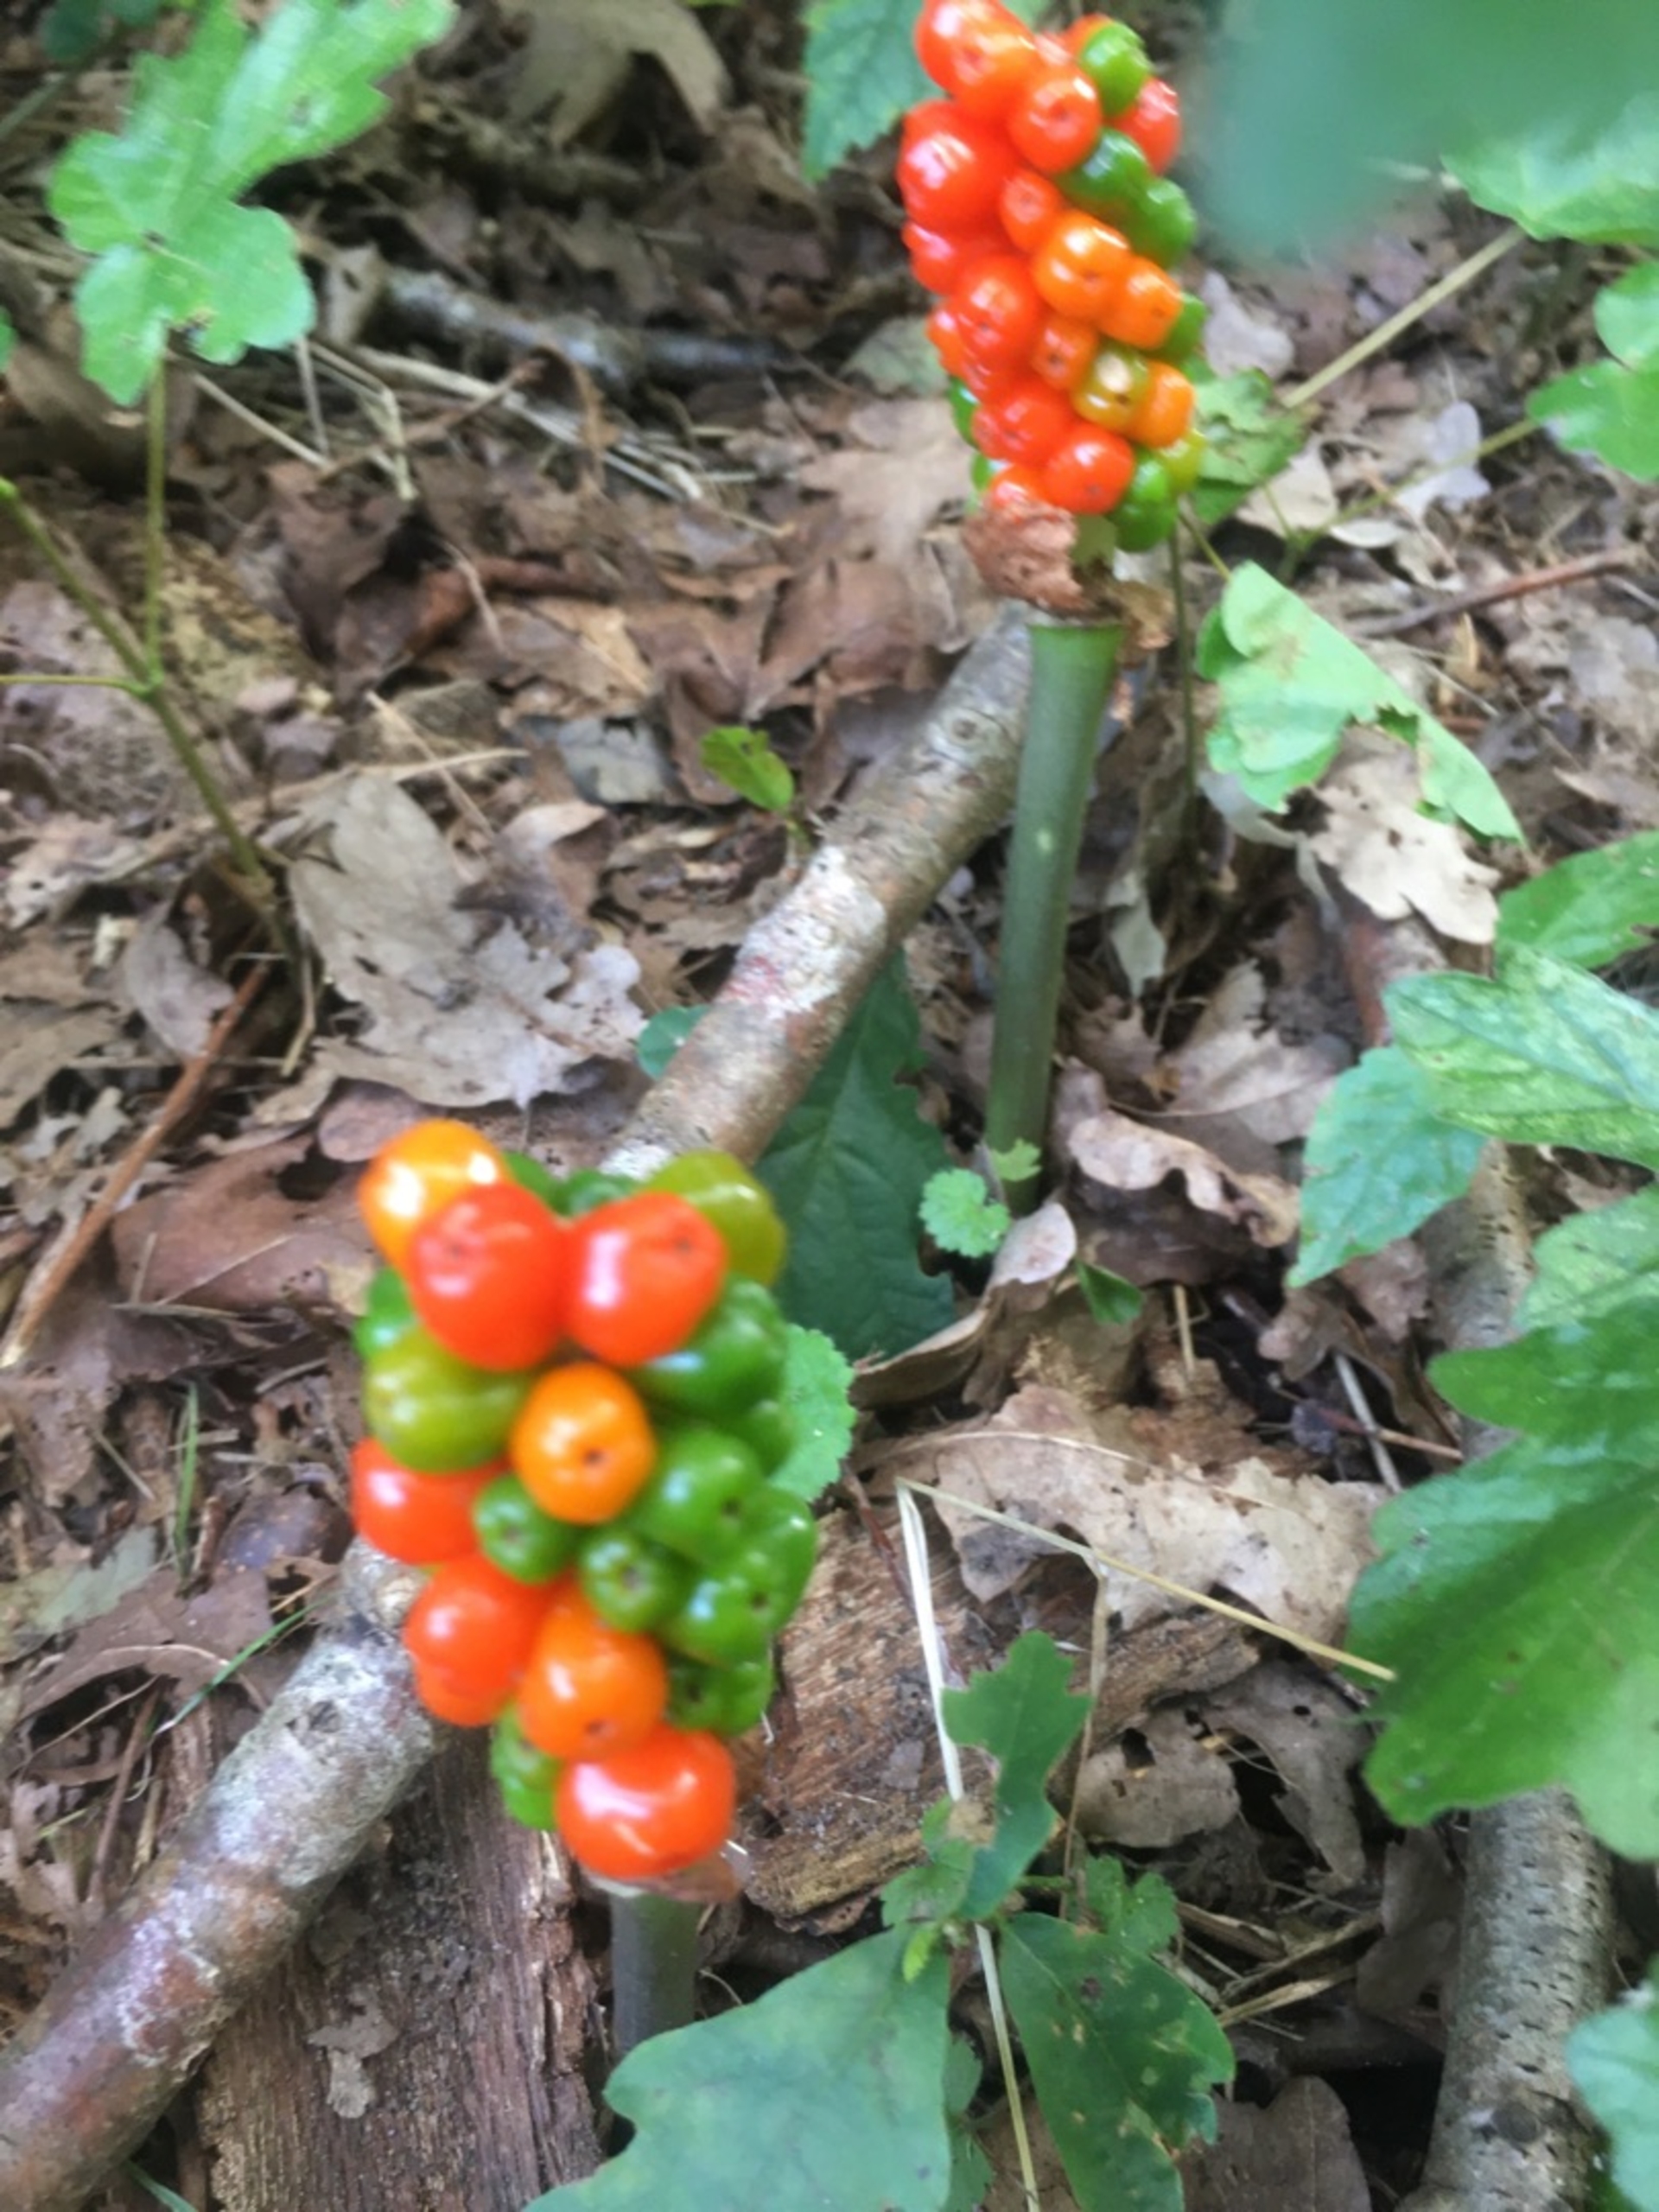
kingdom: Plantae
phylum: Tracheophyta
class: Liliopsida
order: Alismatales
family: Araceae
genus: Arum
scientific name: Arum
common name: Arumslægten
